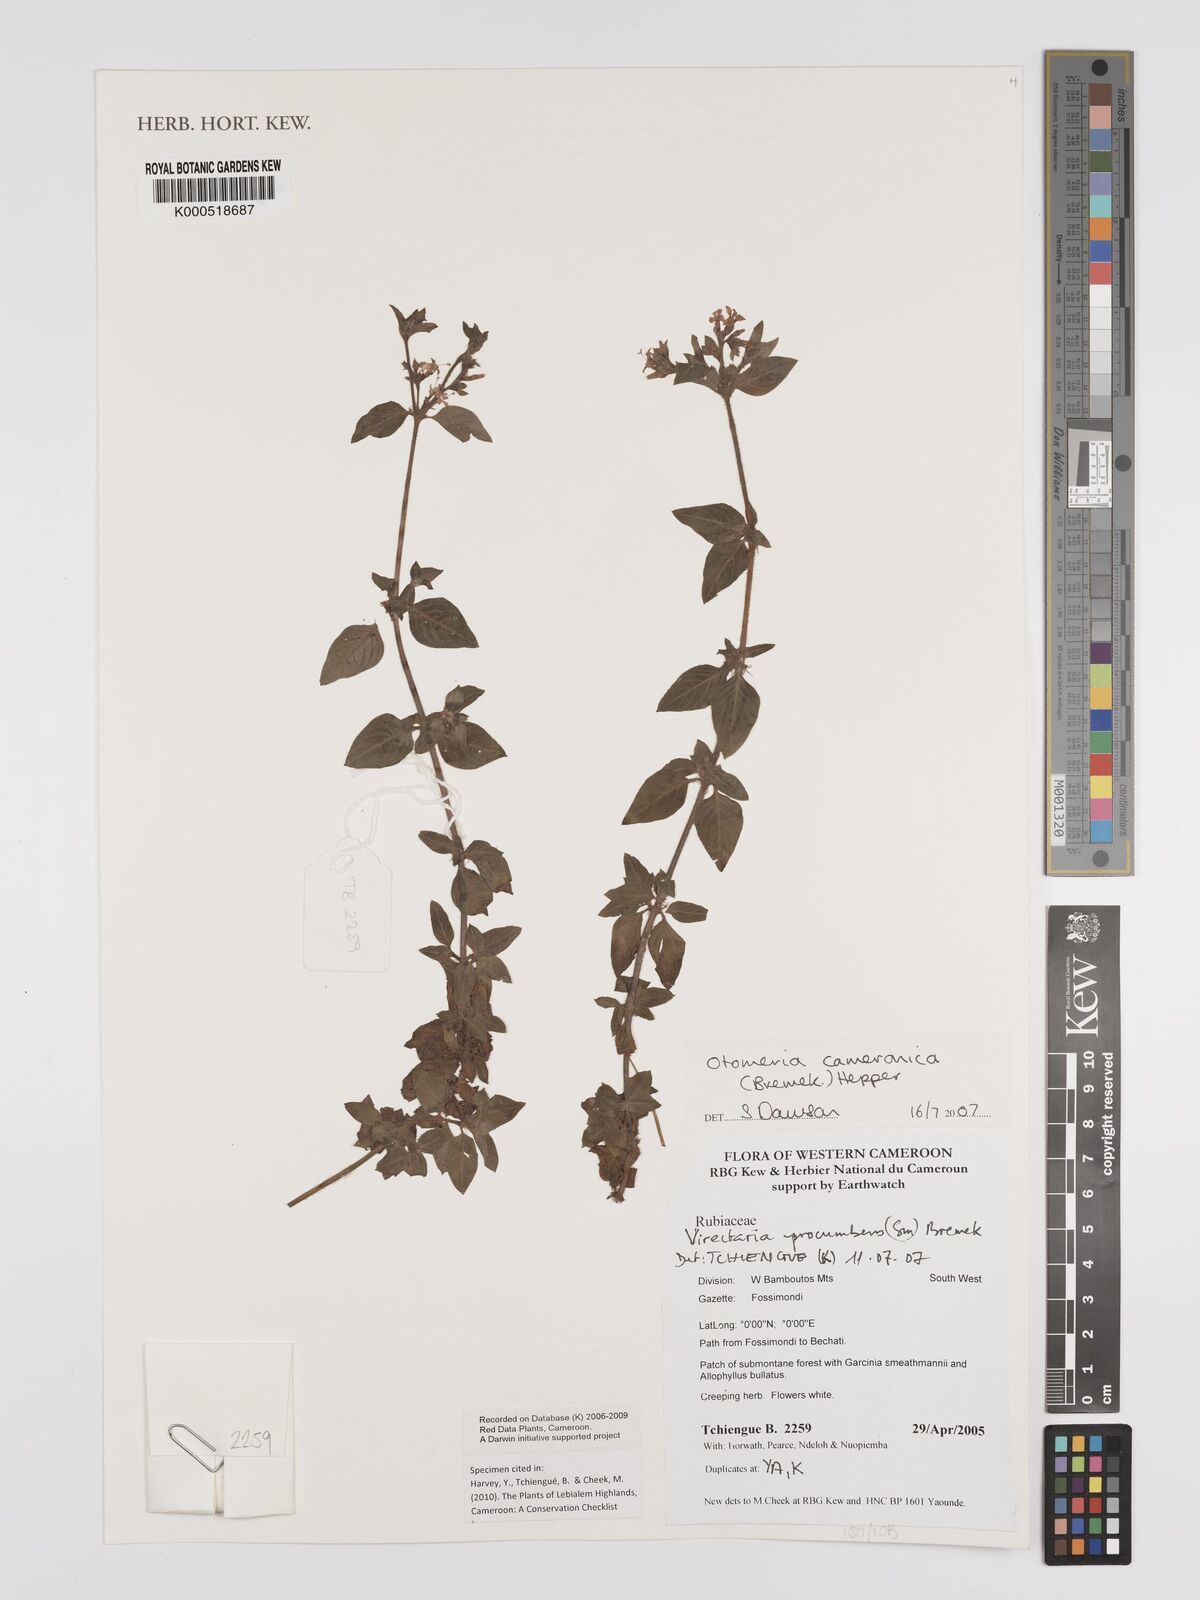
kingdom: Plantae
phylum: Tracheophyta
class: Magnoliopsida
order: Gentianales
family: Rubiaceae
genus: Otomeria
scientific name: Otomeria cameronica
